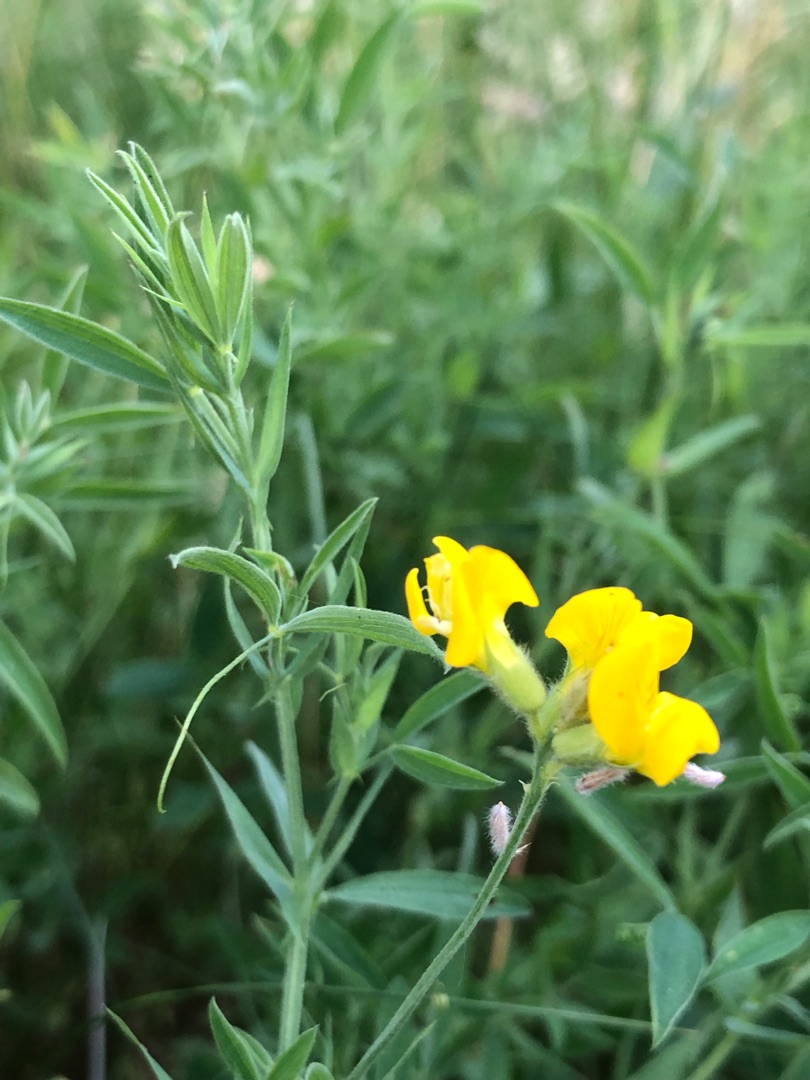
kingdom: Plantae
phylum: Tracheophyta
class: Magnoliopsida
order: Fabales
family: Fabaceae
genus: Lathyrus
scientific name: Lathyrus pratensis
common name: Gul fladbælg
